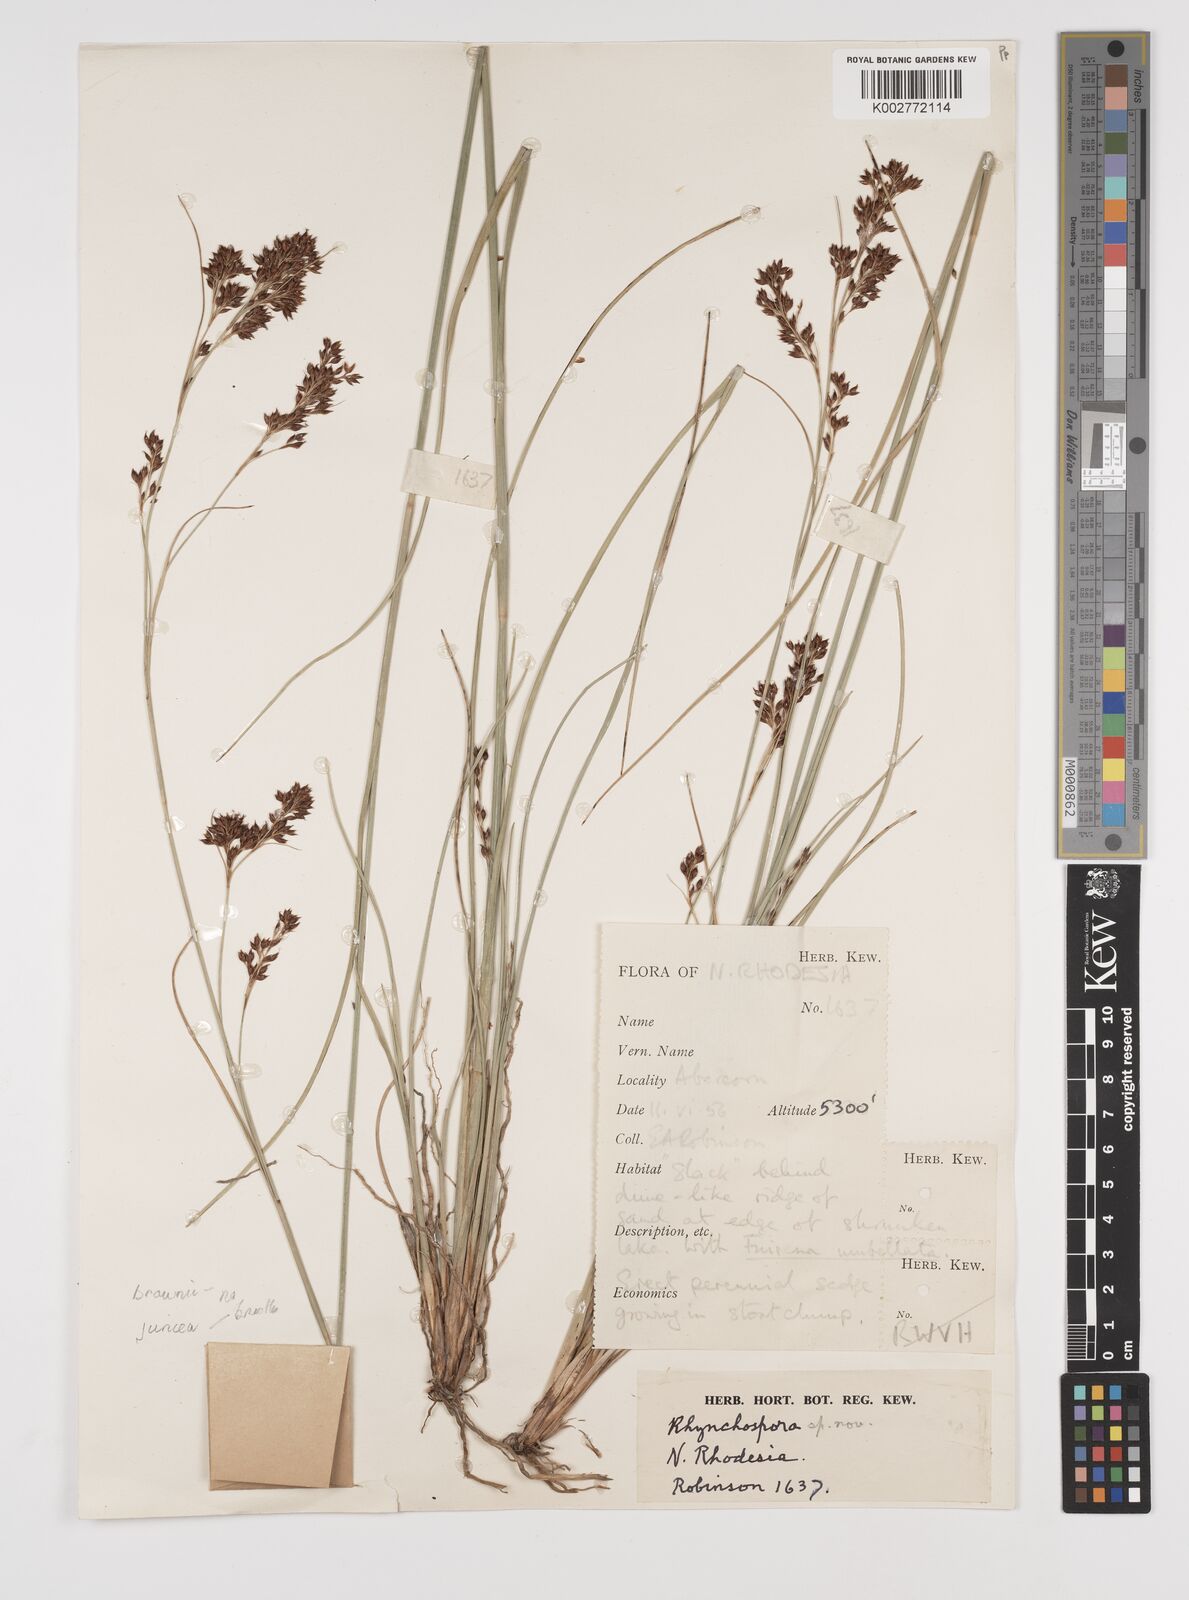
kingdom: Plantae
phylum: Tracheophyta
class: Liliopsida
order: Poales
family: Cyperaceae
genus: Rhynchospora
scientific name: Rhynchospora rugosa
